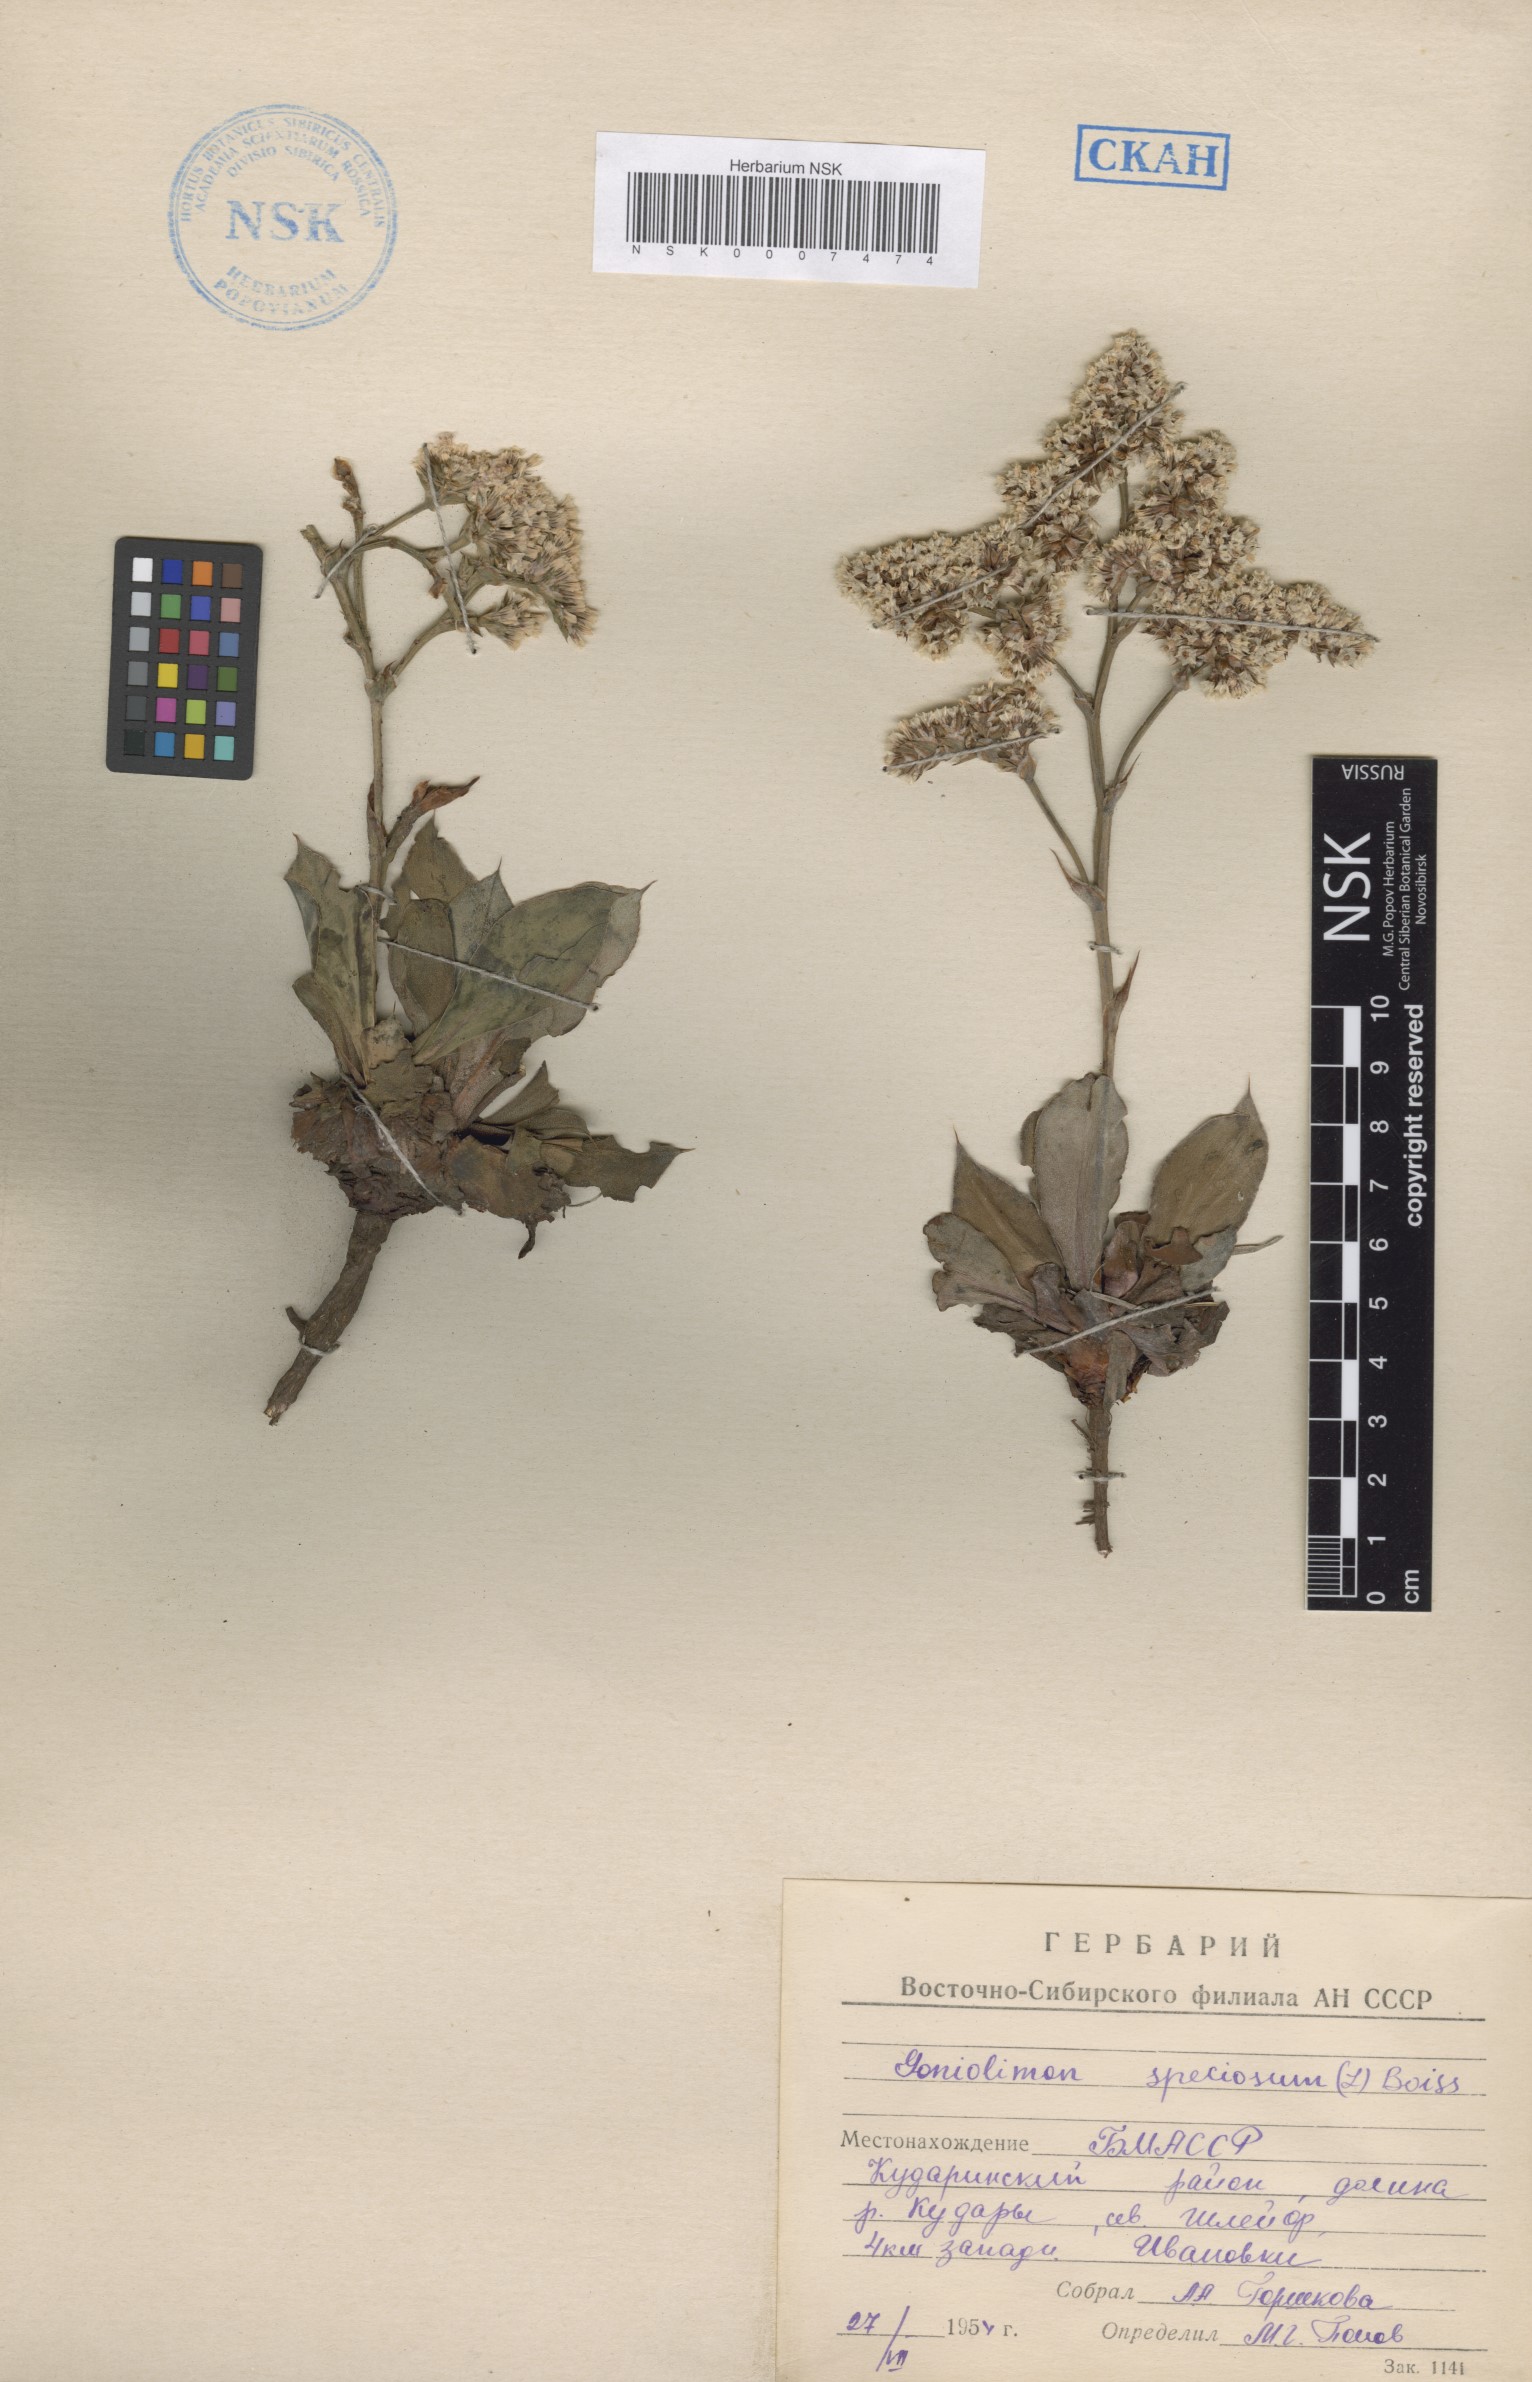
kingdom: Plantae
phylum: Tracheophyta
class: Magnoliopsida
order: Caryophyllales
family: Plumbaginaceae
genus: Goniolimon
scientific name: Goniolimon speciosum
